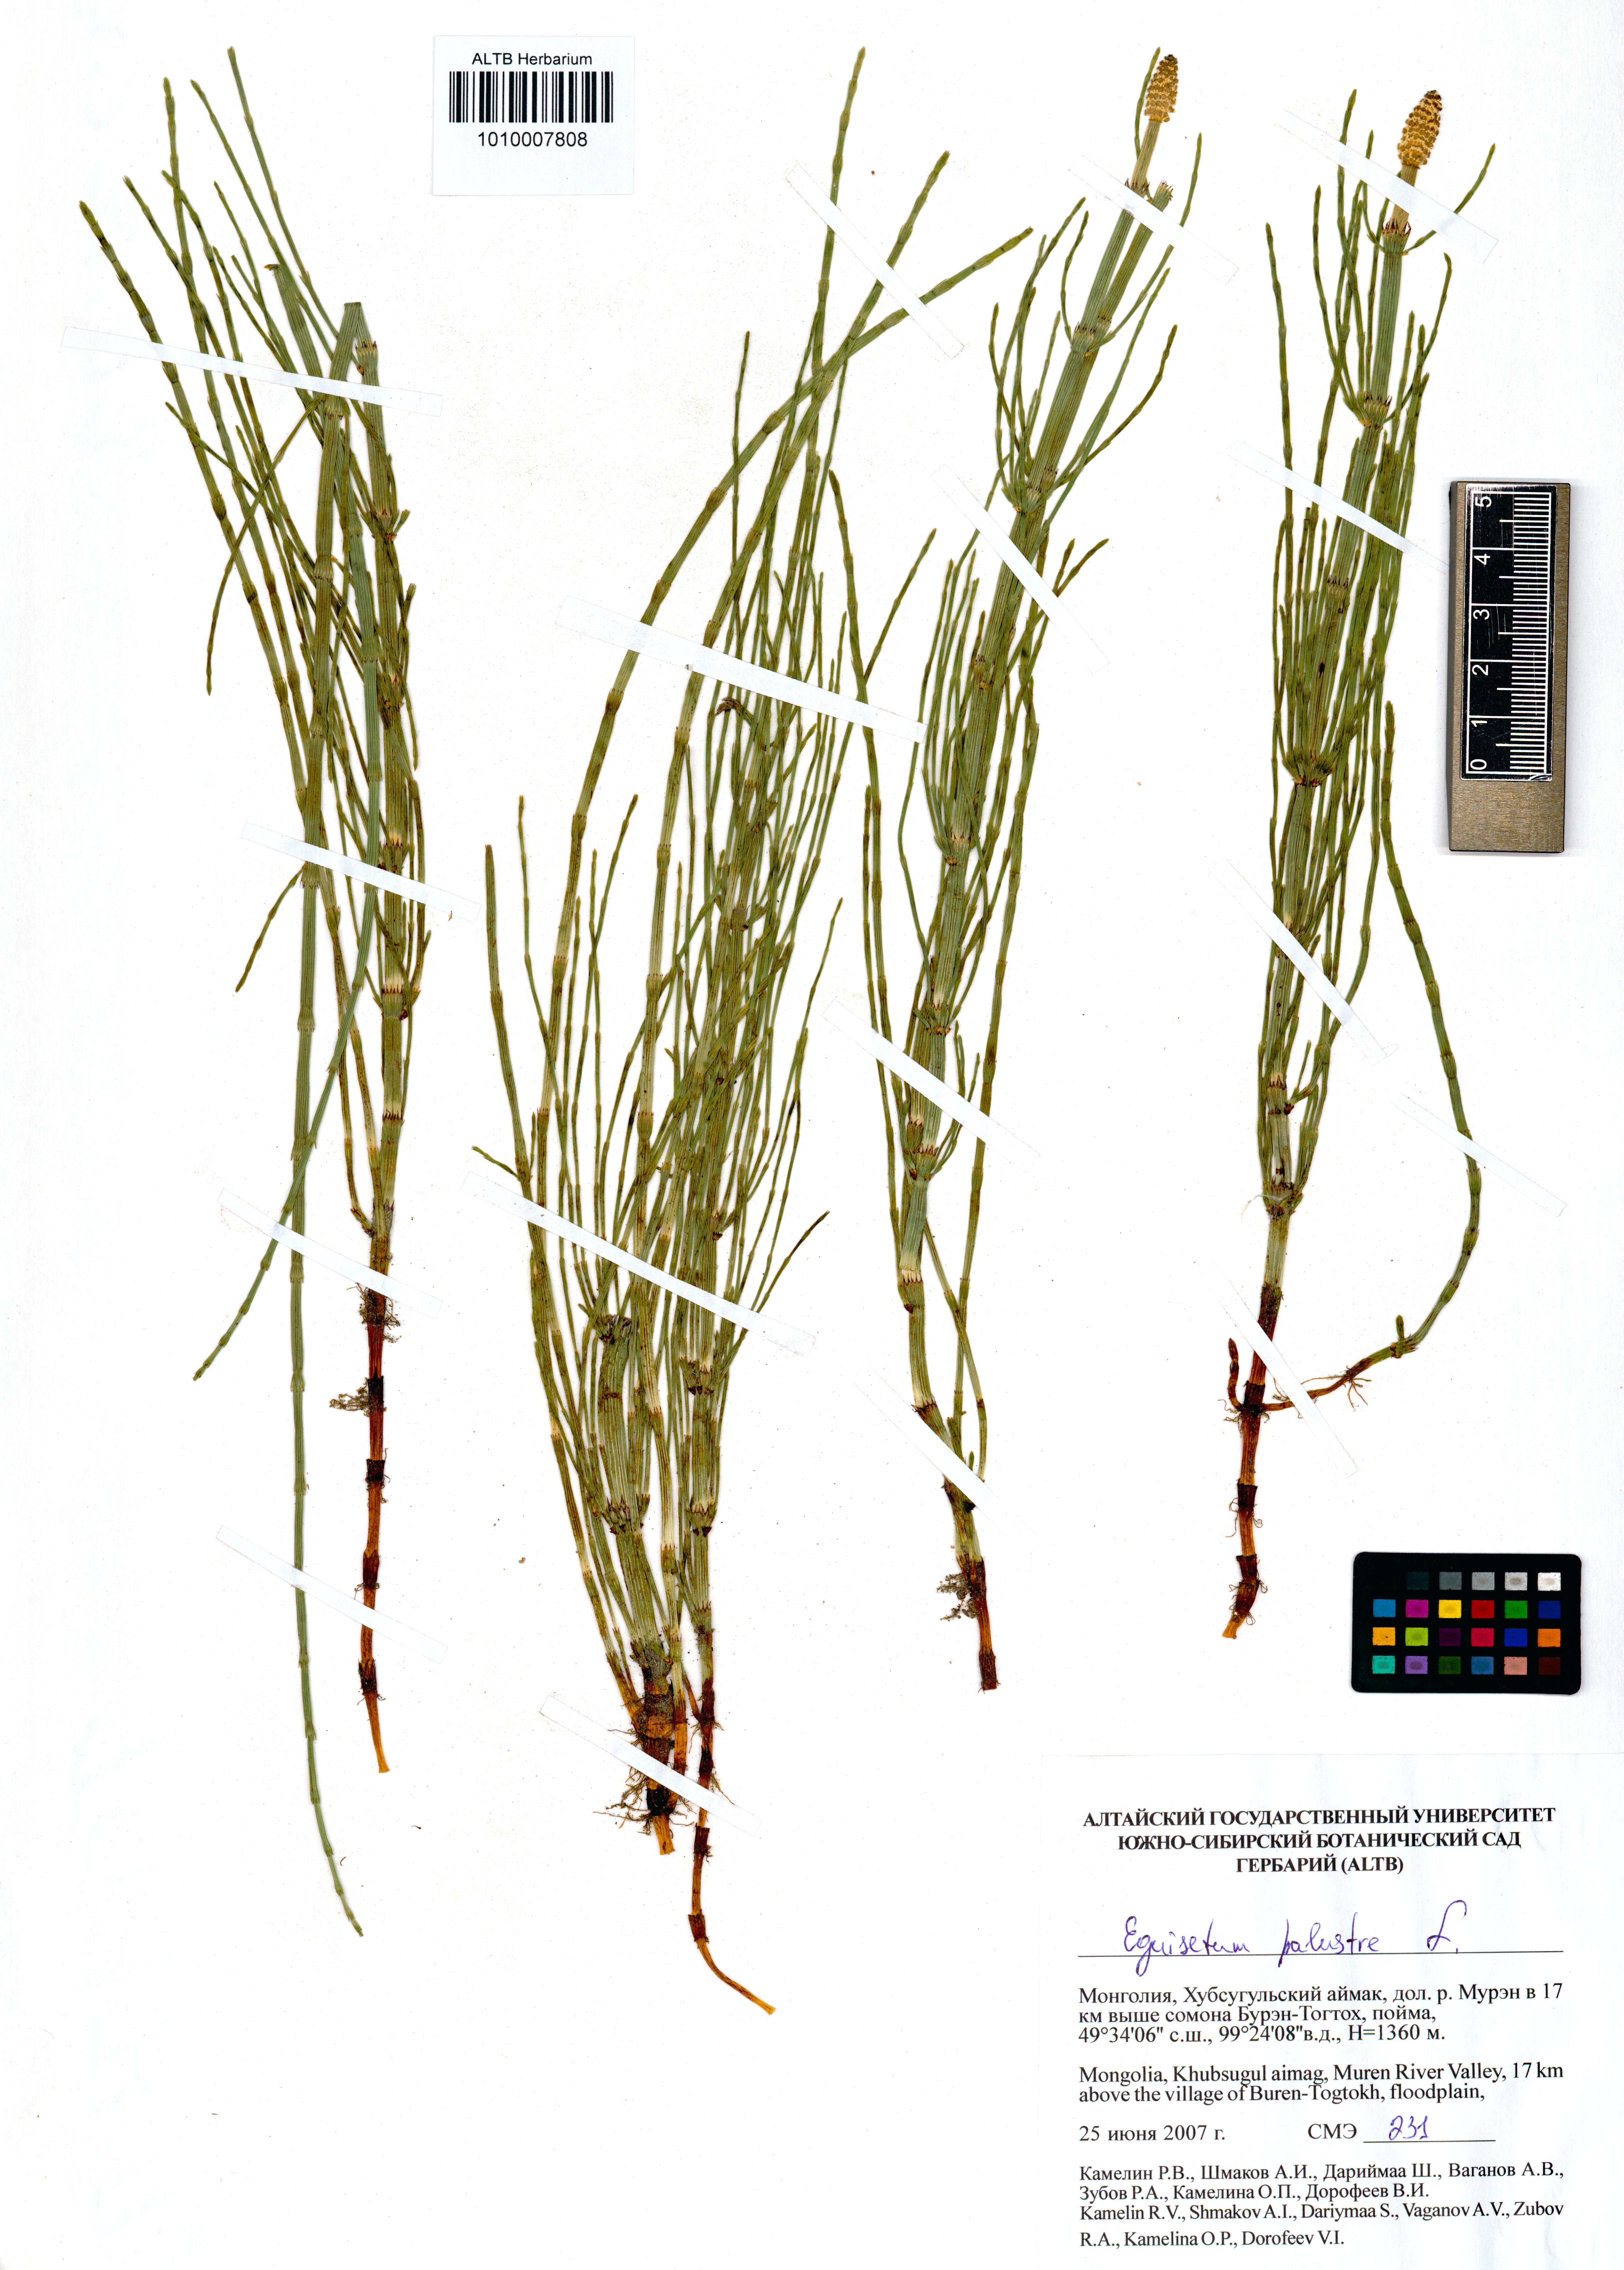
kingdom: Plantae
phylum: Tracheophyta
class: Polypodiopsida
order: Equisetales
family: Equisetaceae
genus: Equisetum
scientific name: Equisetum palustre
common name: Marsh horsetail
